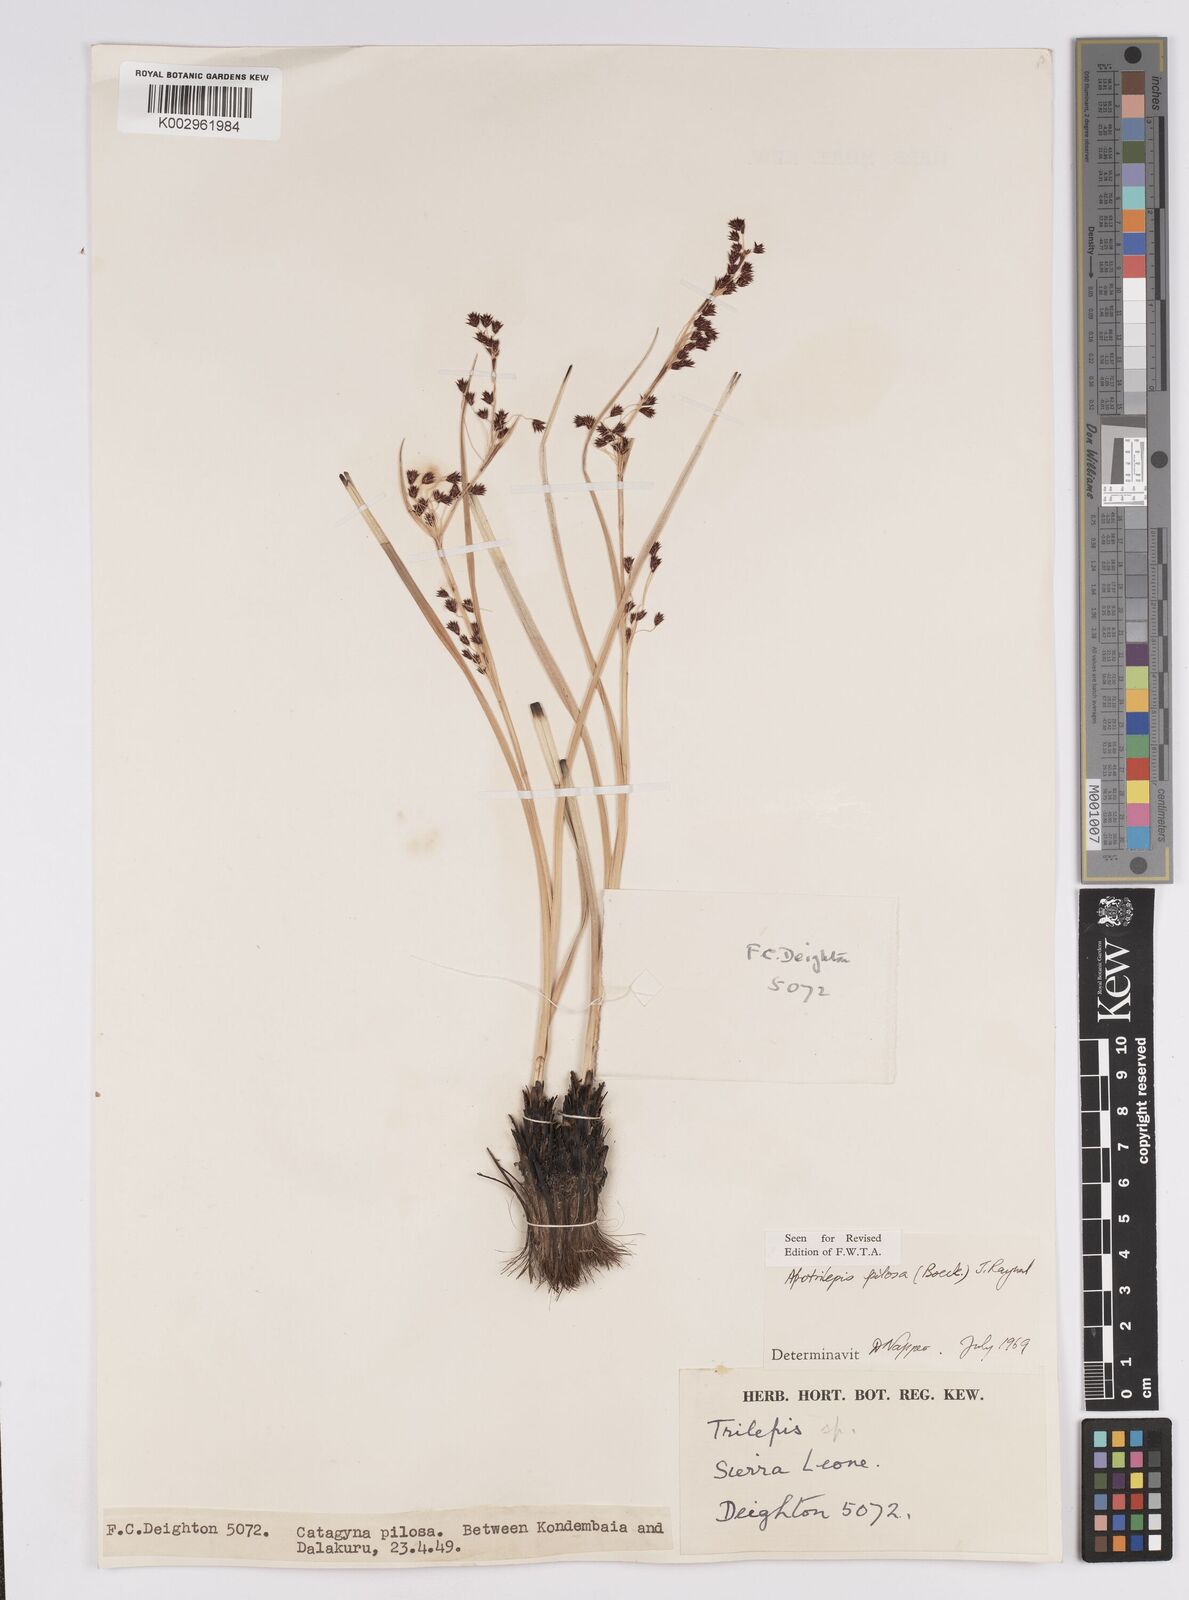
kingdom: Plantae
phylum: Tracheophyta
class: Liliopsida
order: Poales
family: Cyperaceae
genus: Afrotrilepis
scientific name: Afrotrilepis pilosa
